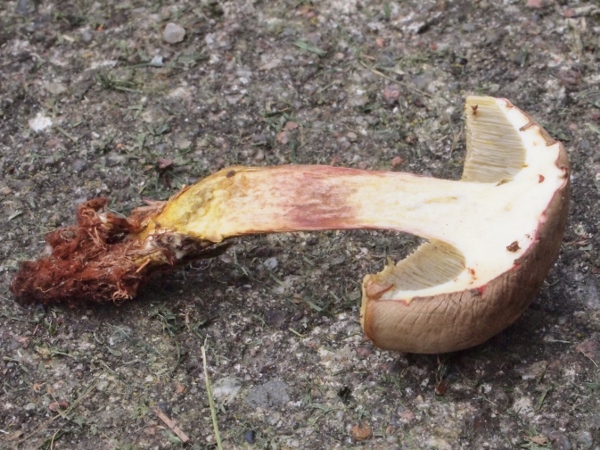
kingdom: Fungi
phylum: Basidiomycota
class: Agaricomycetes
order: Boletales
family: Boletaceae
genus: Xerocomus
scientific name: Xerocomus ferrugineus
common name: vaskeskinds-rørhat
